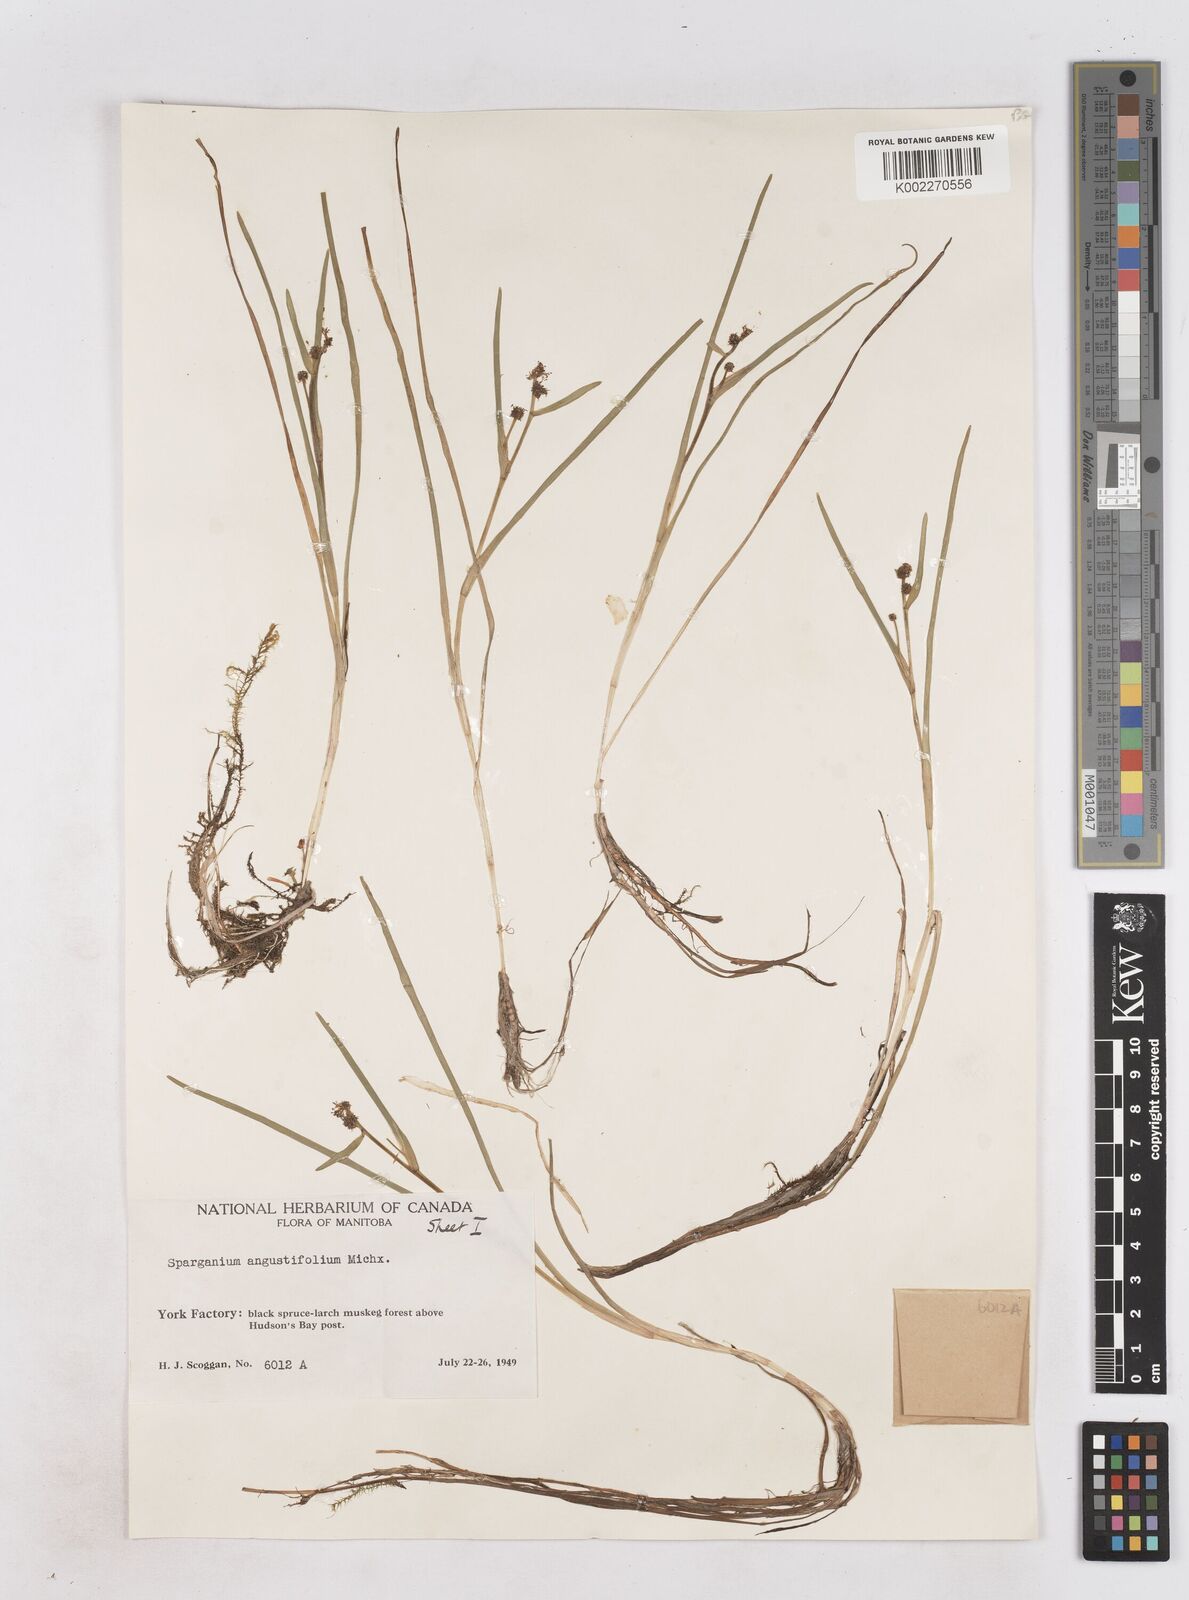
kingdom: Plantae
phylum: Tracheophyta
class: Liliopsida
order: Poales
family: Typhaceae
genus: Sparganium
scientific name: Sparganium angustifolium
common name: Floating bur-reed
